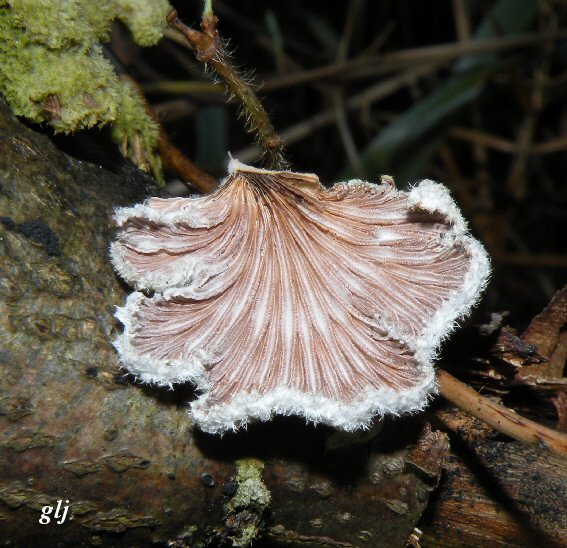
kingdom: Fungi
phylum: Basidiomycota
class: Agaricomycetes
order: Agaricales
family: Schizophyllaceae
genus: Schizophyllum
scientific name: Schizophyllum commune
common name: kløvblad
